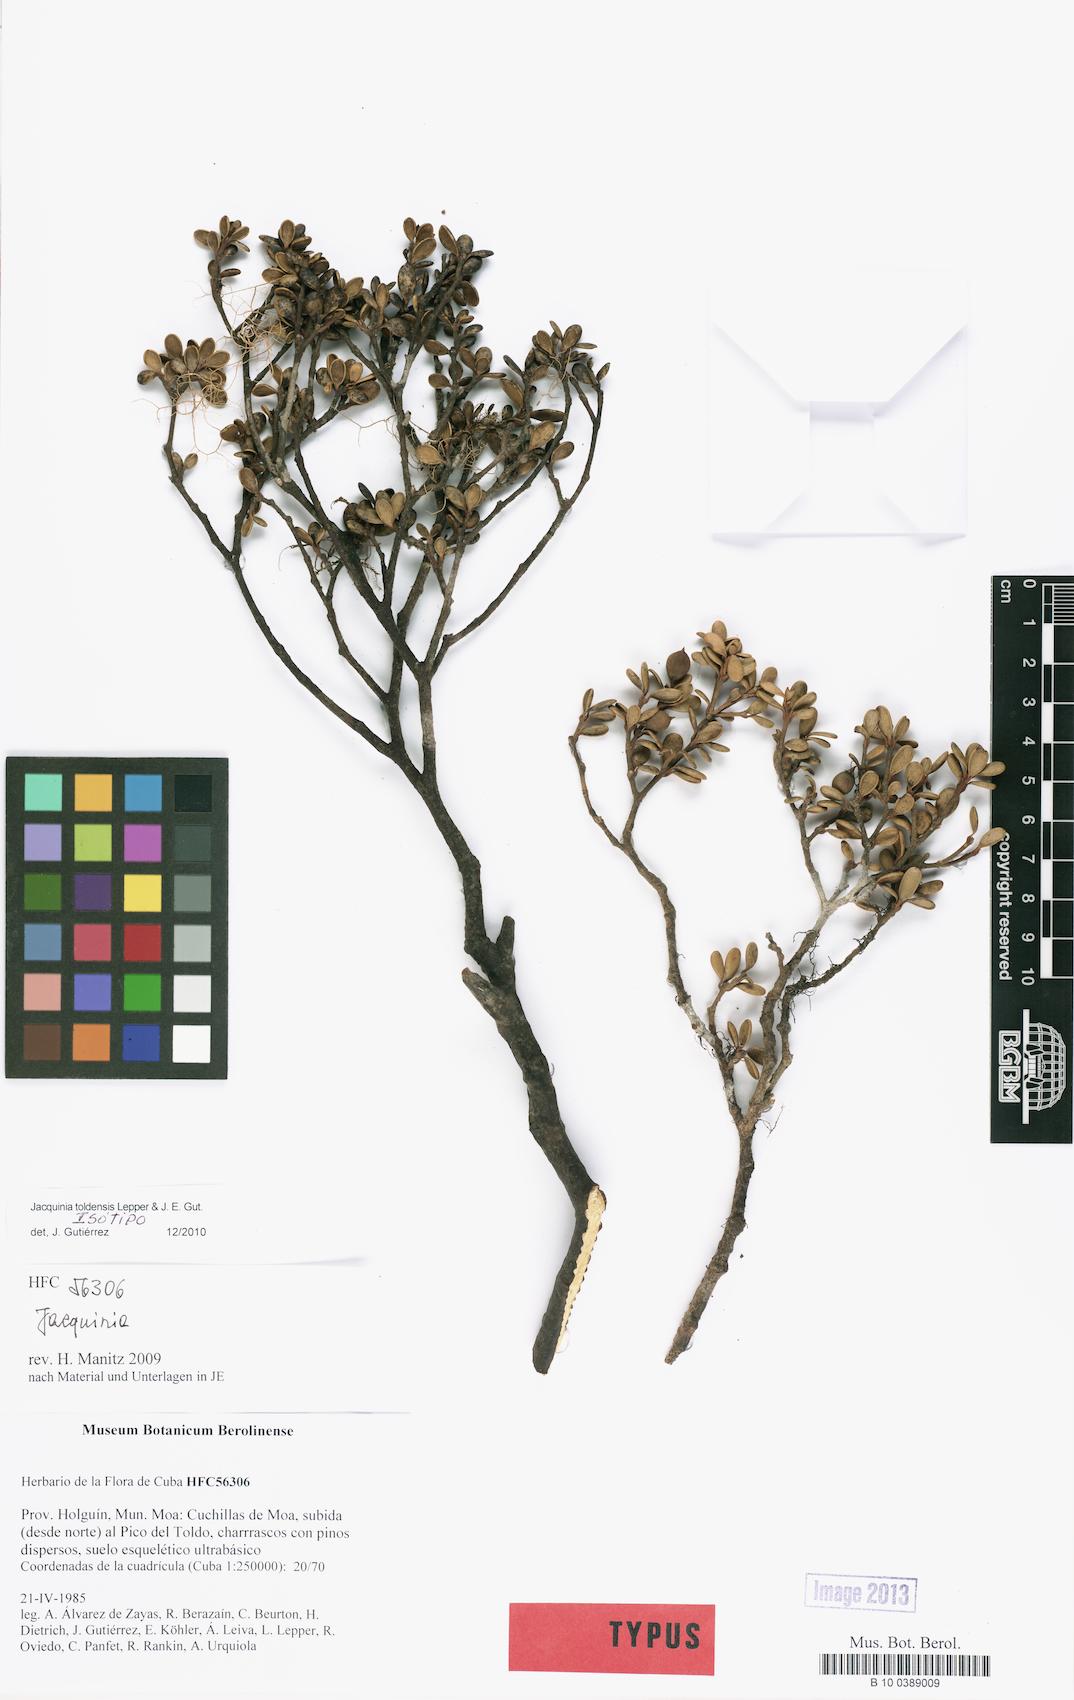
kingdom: Plantae
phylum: Tracheophyta
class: Magnoliopsida
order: Ericales
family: Primulaceae
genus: Jacquinia
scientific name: Jacquinia toldensis
